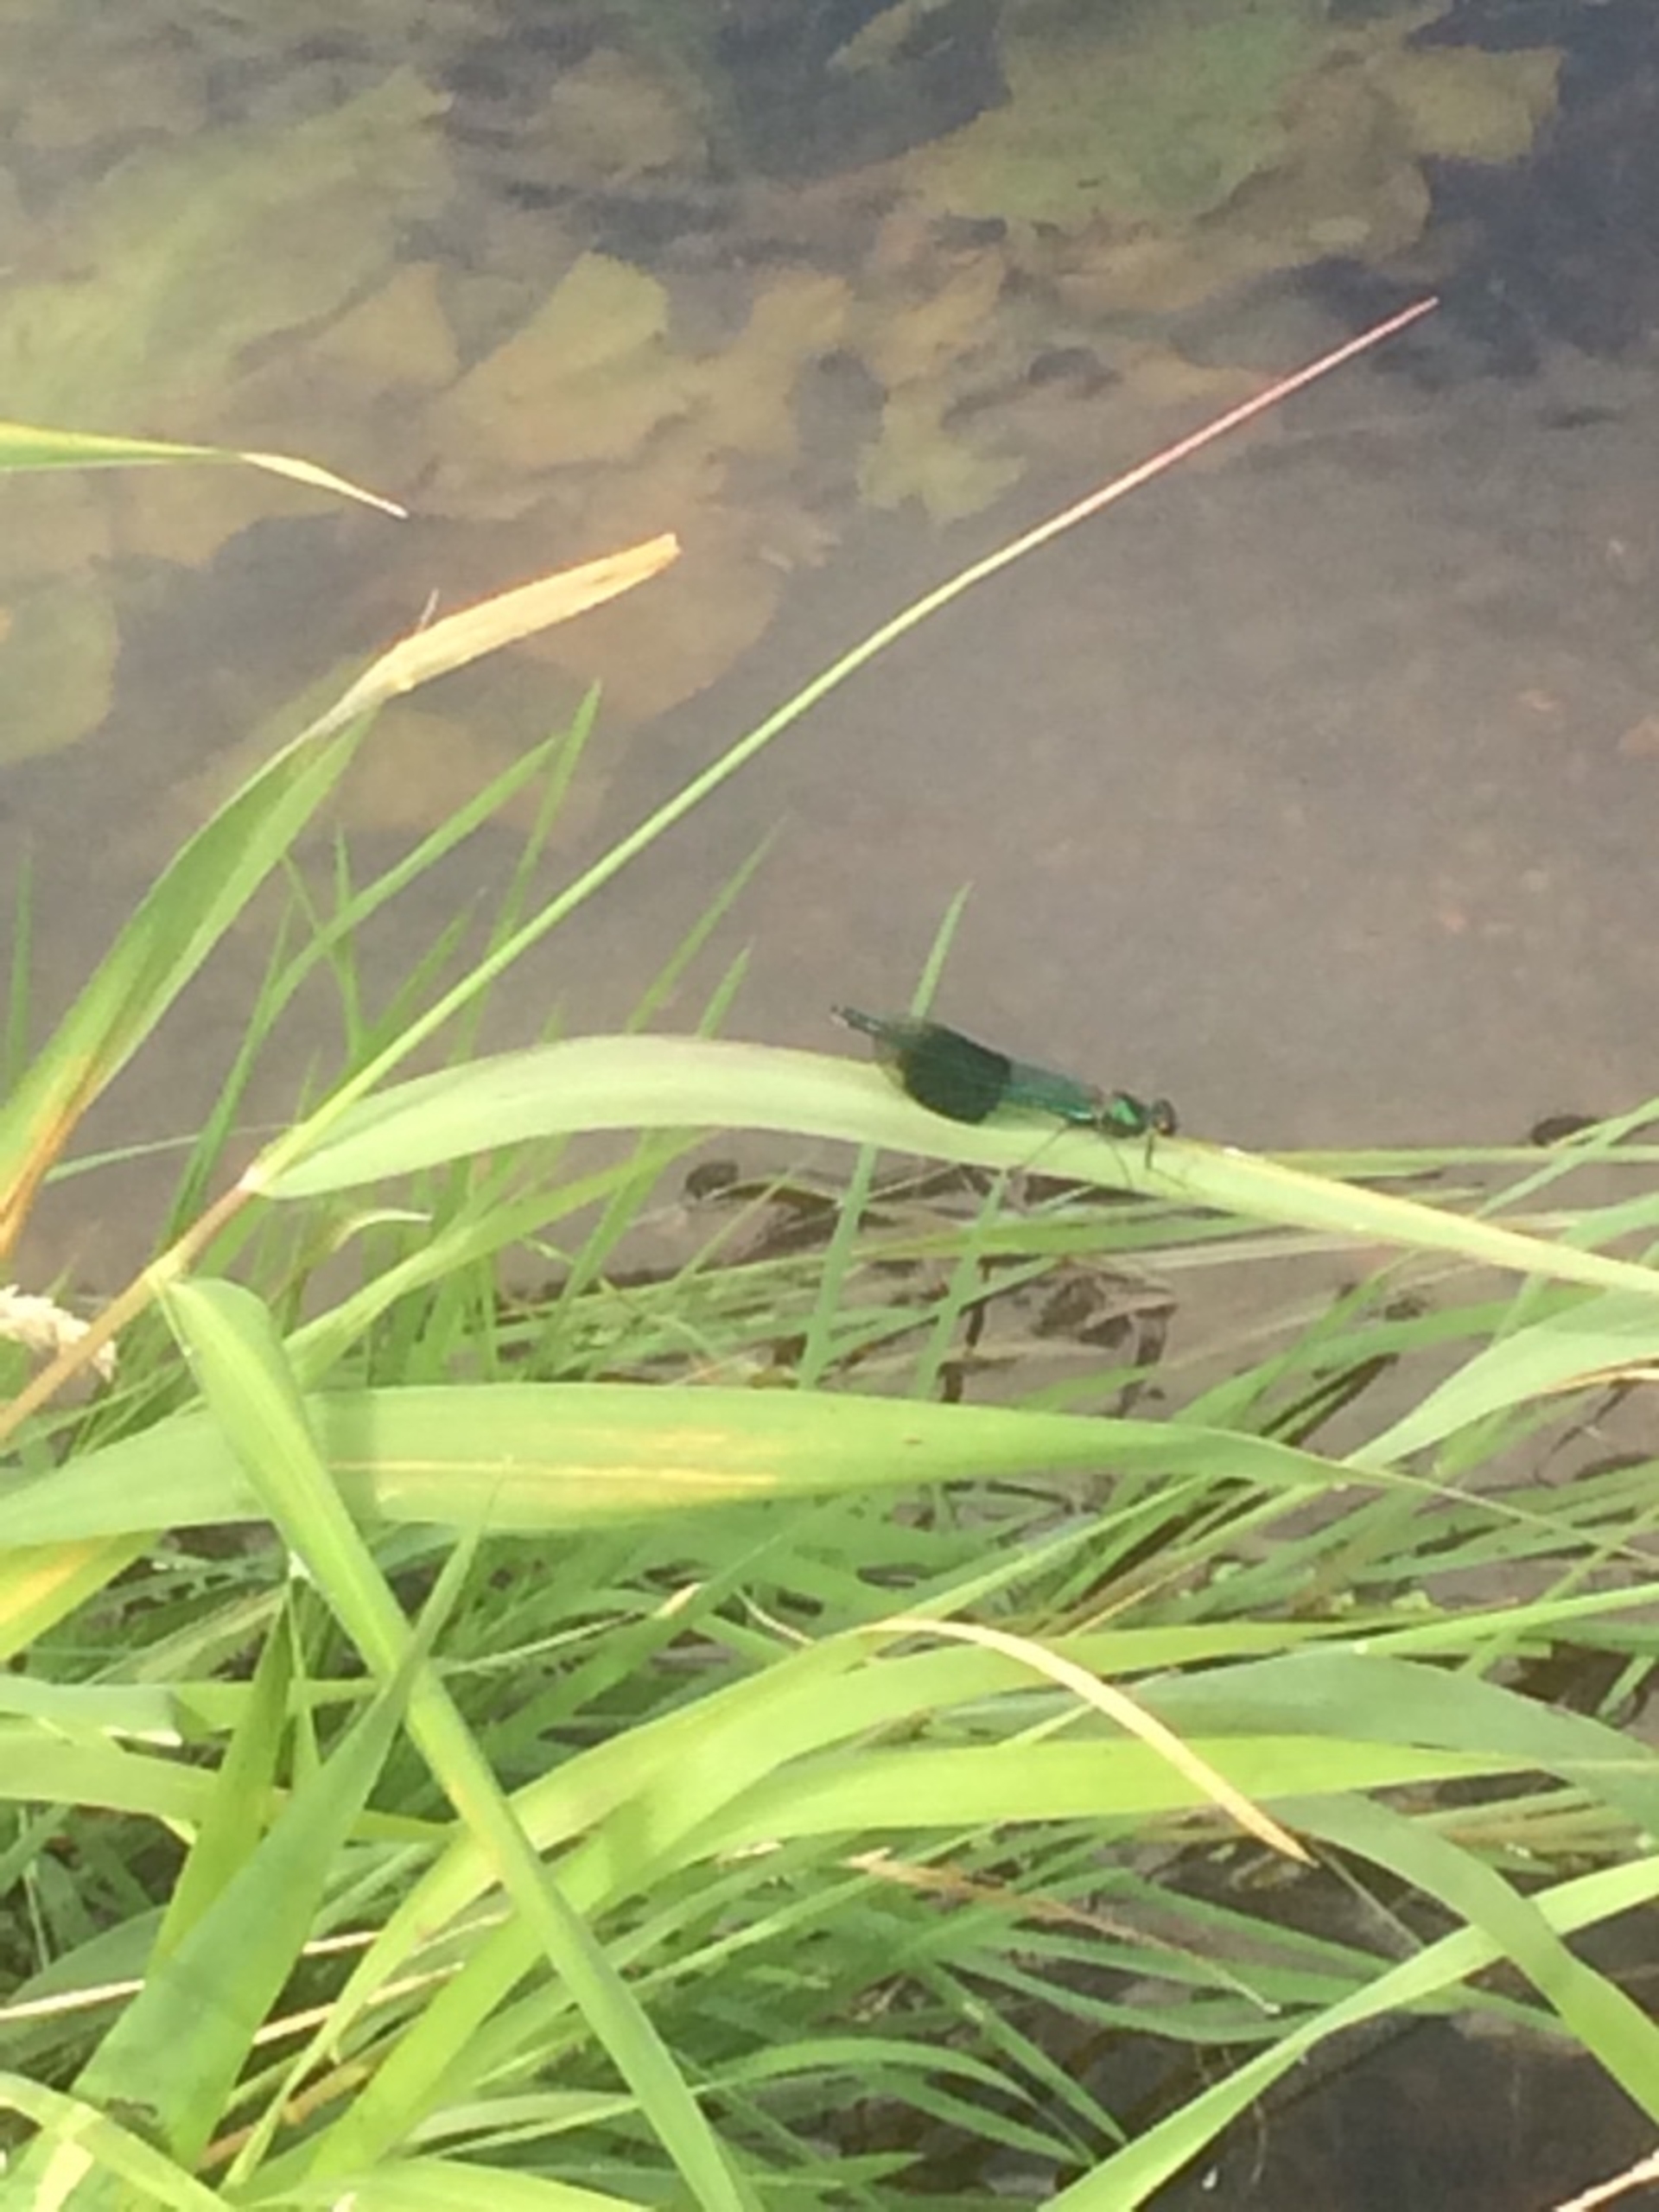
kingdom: Animalia
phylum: Arthropoda
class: Insecta
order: Odonata
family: Calopterygidae
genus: Calopteryx
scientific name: Calopteryx splendens
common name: Blåbåndet pragtvandnymfe
